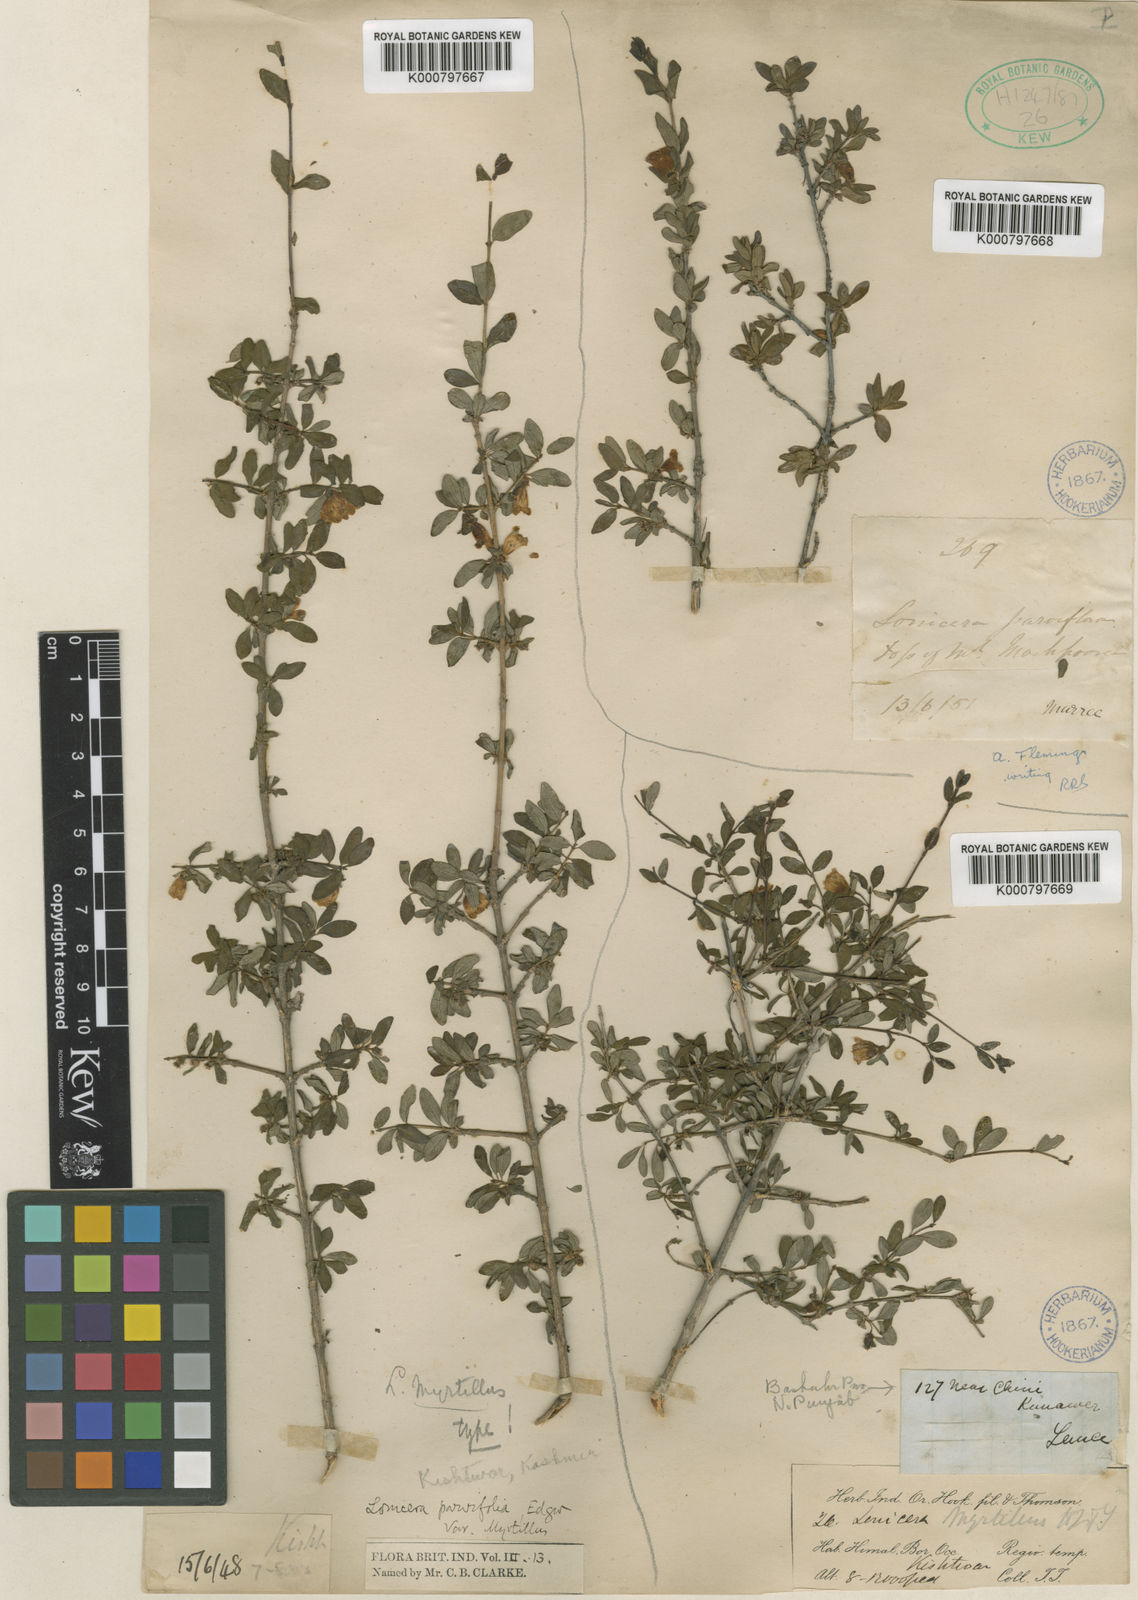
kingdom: Plantae
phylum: Tracheophyta
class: Magnoliopsida
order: Dipsacales
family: Caprifoliaceae
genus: Lonicera
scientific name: Lonicera angustifolia
